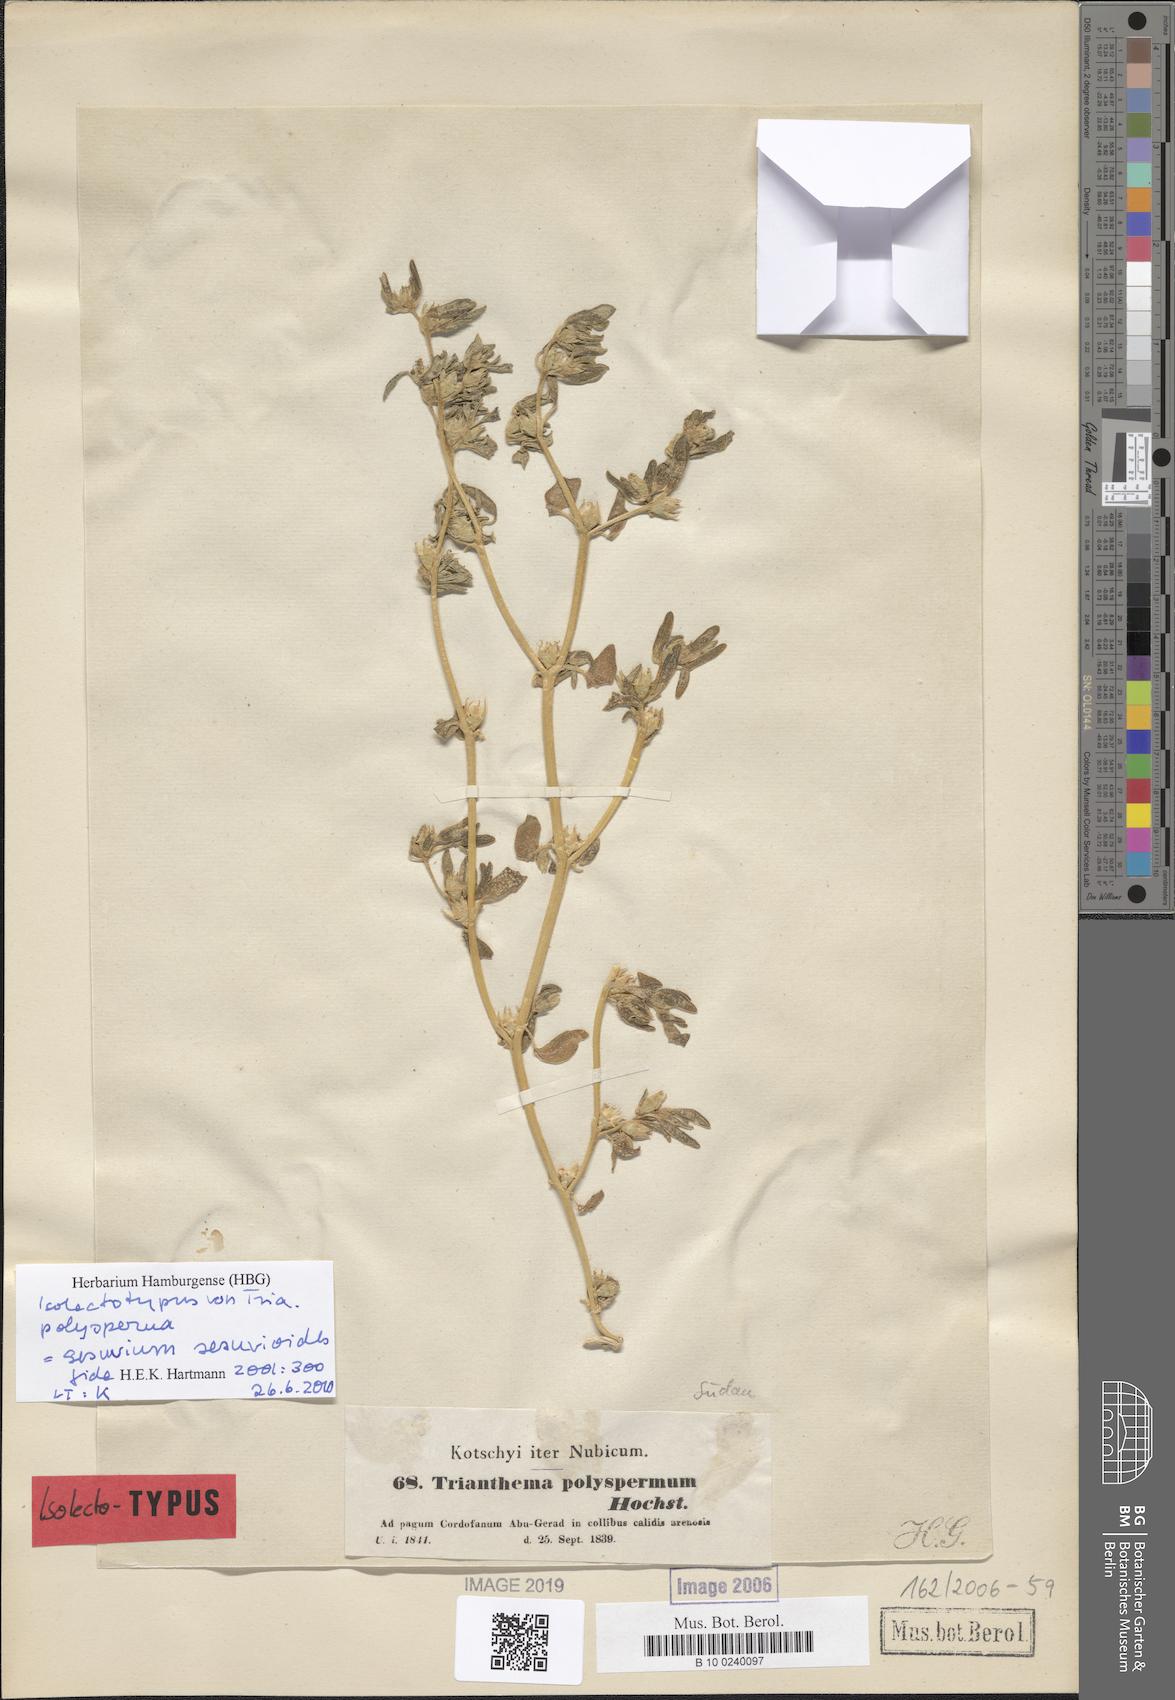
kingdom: Plantae
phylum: Tracheophyta
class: Magnoliopsida
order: Caryophyllales
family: Aizoaceae
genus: Sesuvium
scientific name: Sesuvium sesuvioides
